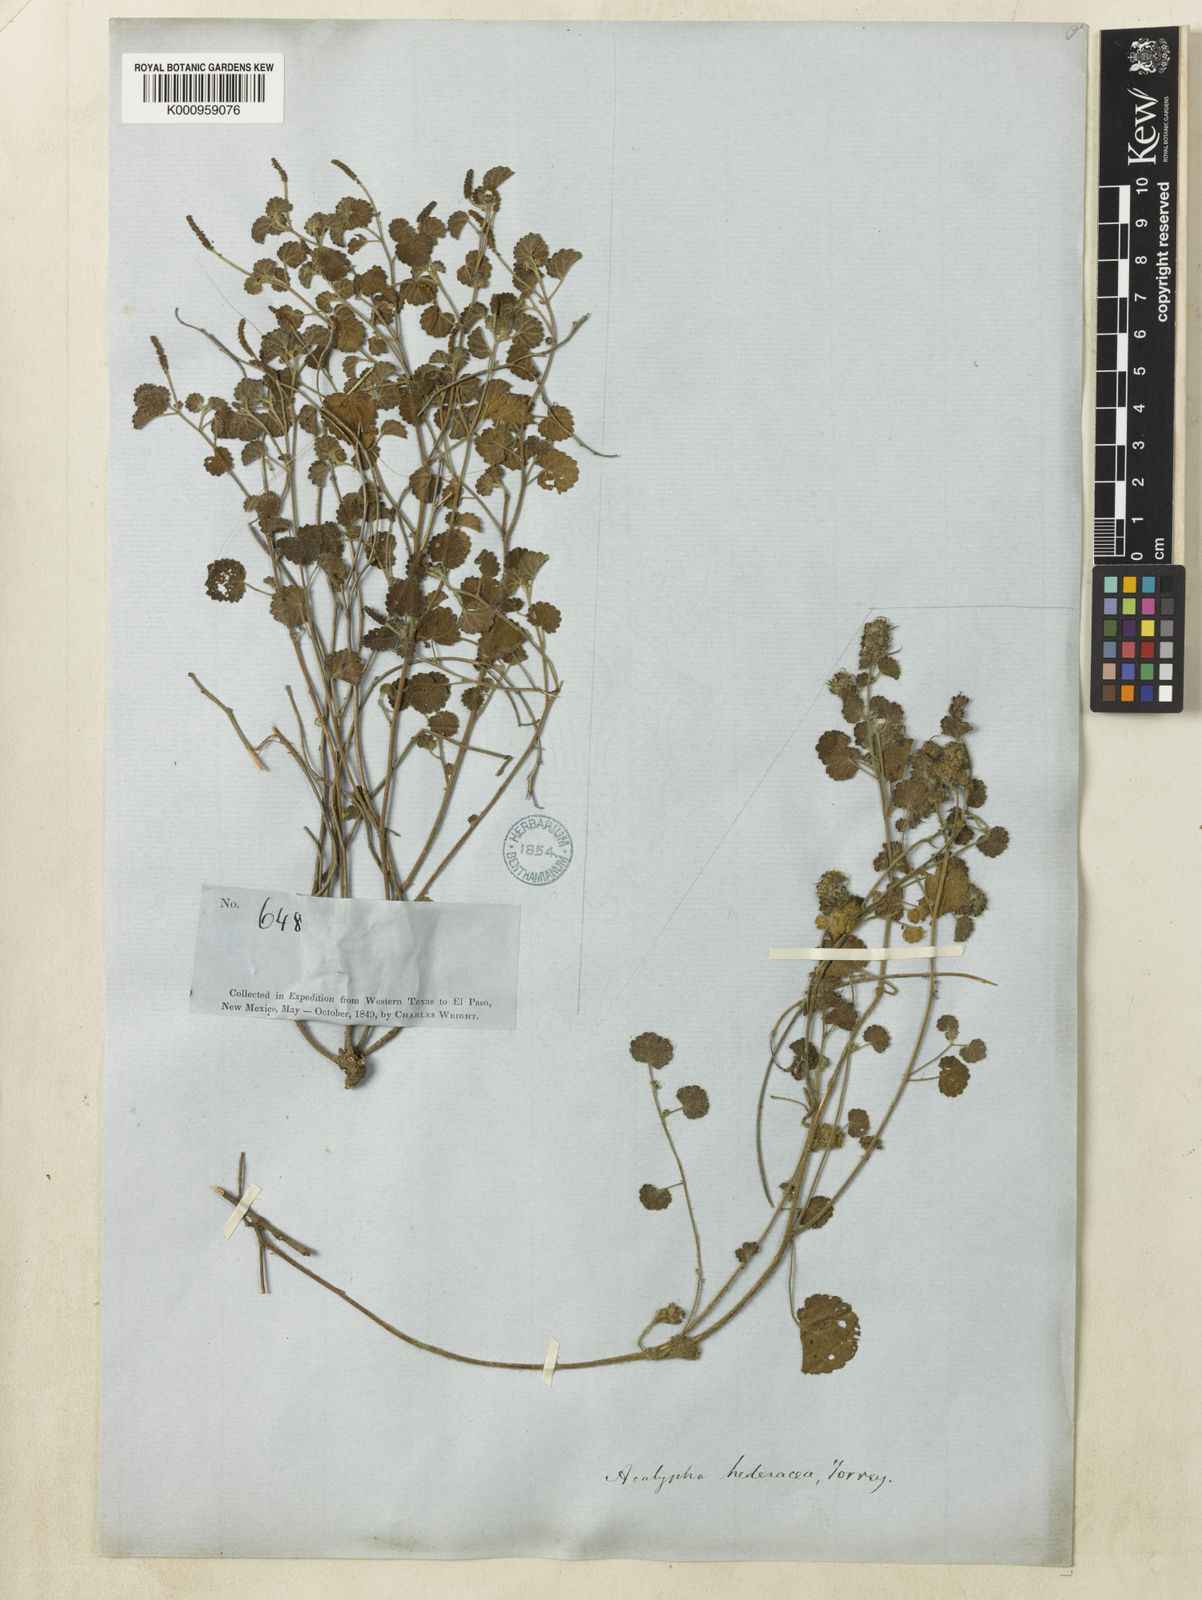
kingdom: Plantae
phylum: Tracheophyta
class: Magnoliopsida
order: Malpighiales
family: Euphorbiaceae
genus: Acalypha
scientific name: Acalypha monostachya
